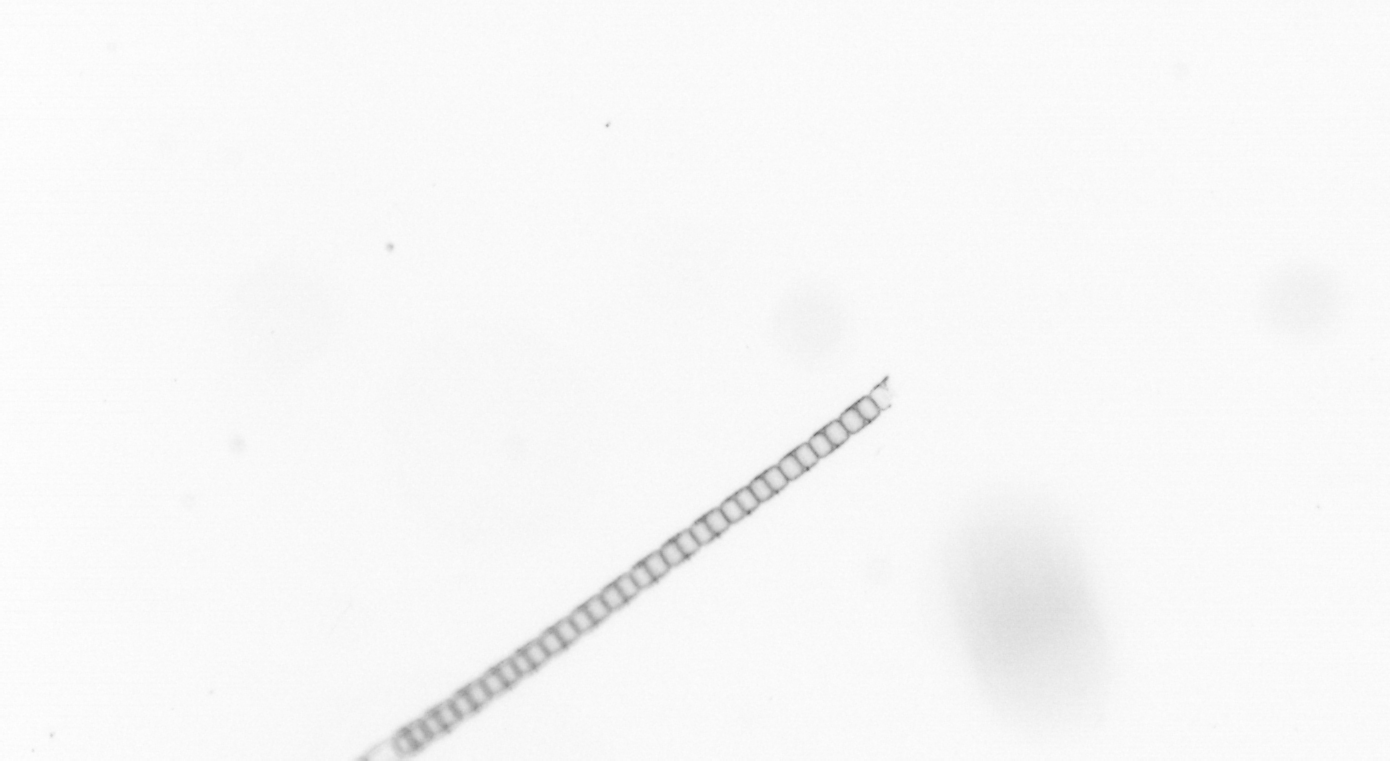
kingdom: Chromista
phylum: Ochrophyta
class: Bacillariophyceae
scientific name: Bacillariophyceae
